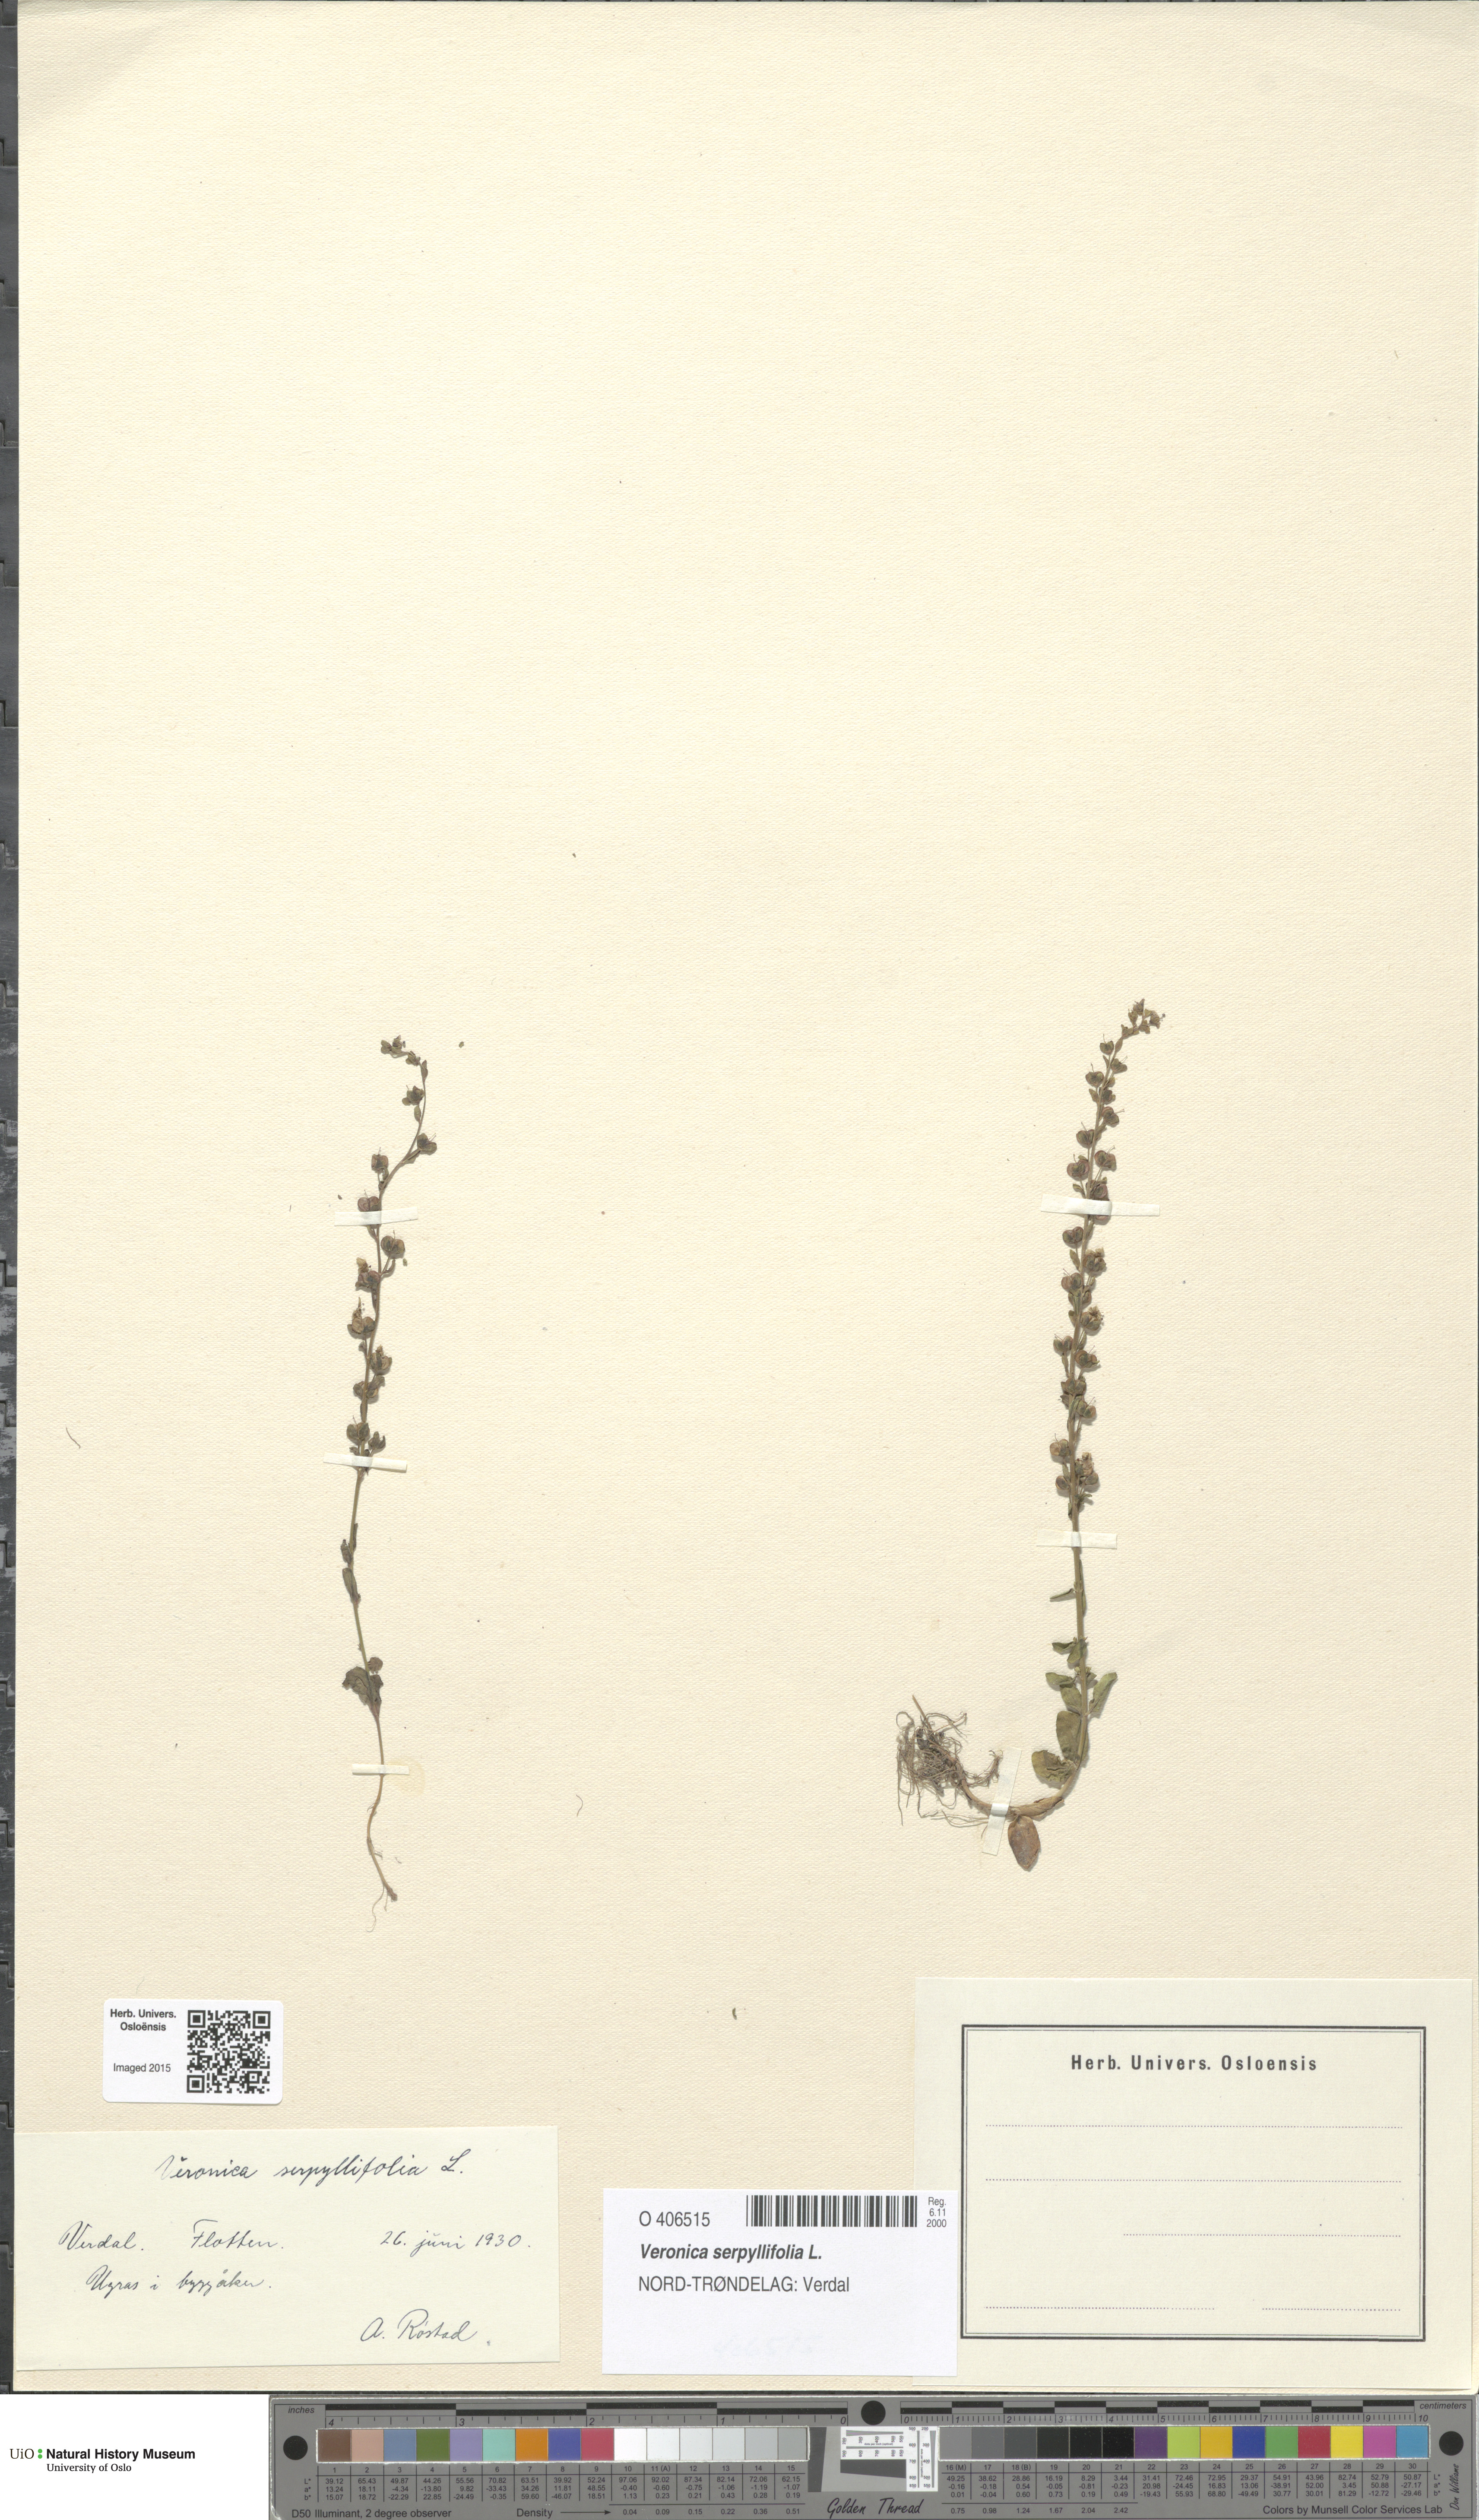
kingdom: Plantae
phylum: Tracheophyta
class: Magnoliopsida
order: Lamiales
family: Plantaginaceae
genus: Veronica
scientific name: Veronica serpyllifolia
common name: Thyme-leaved speedwell
